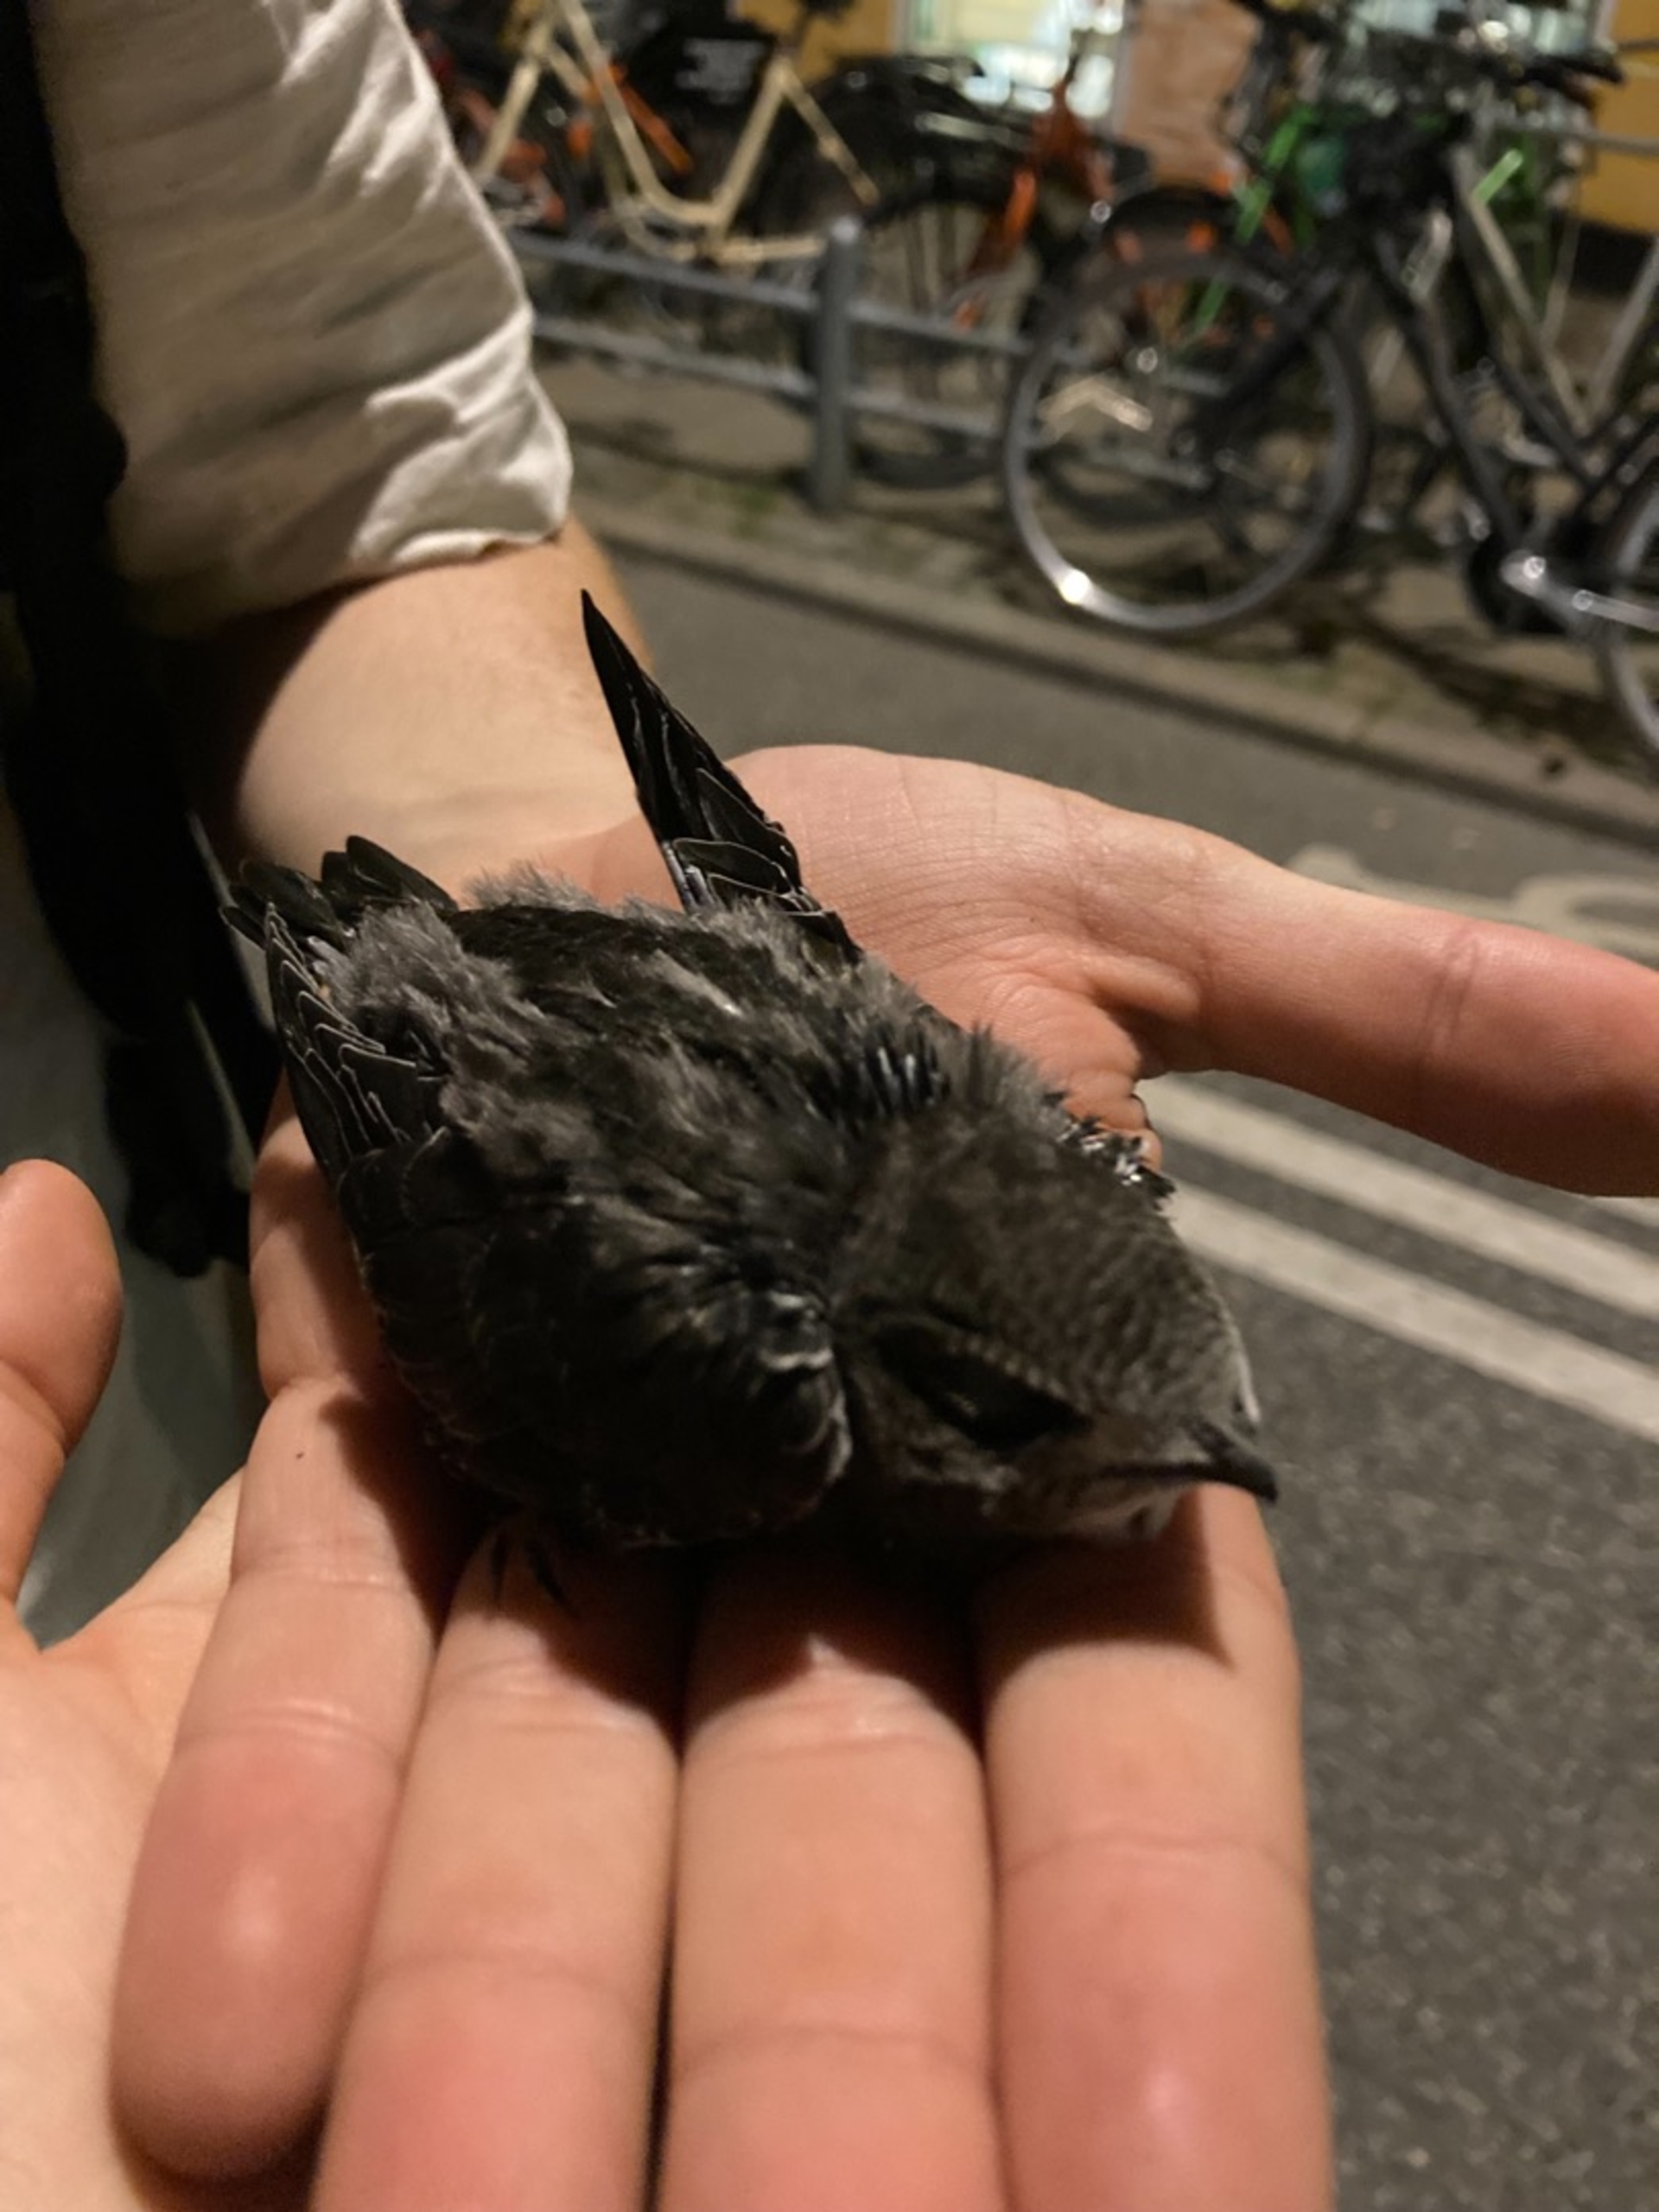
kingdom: Animalia
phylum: Chordata
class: Aves
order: Apodiformes
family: Apodidae
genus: Apus
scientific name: Apus apus
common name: Mursejler
